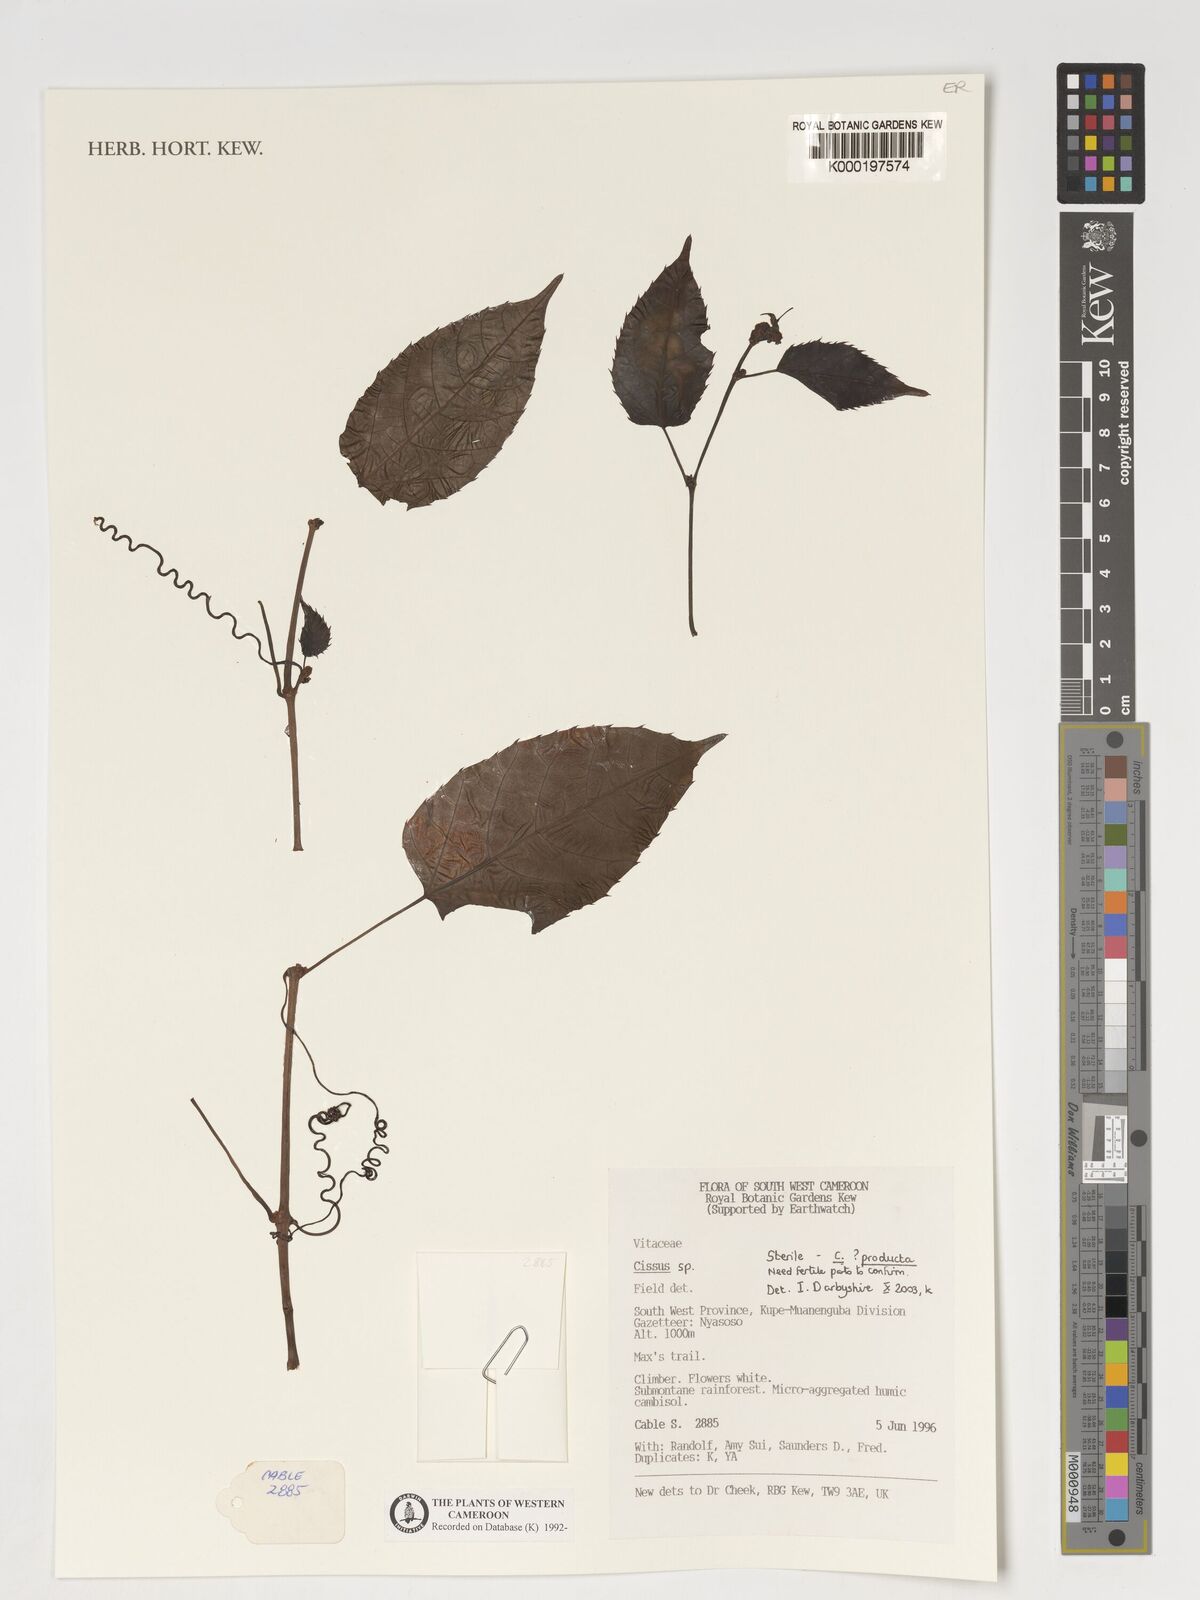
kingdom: Plantae
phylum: Tracheophyta
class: Magnoliopsida
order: Vitales
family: Vitaceae
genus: Cissus
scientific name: Cissus producta
